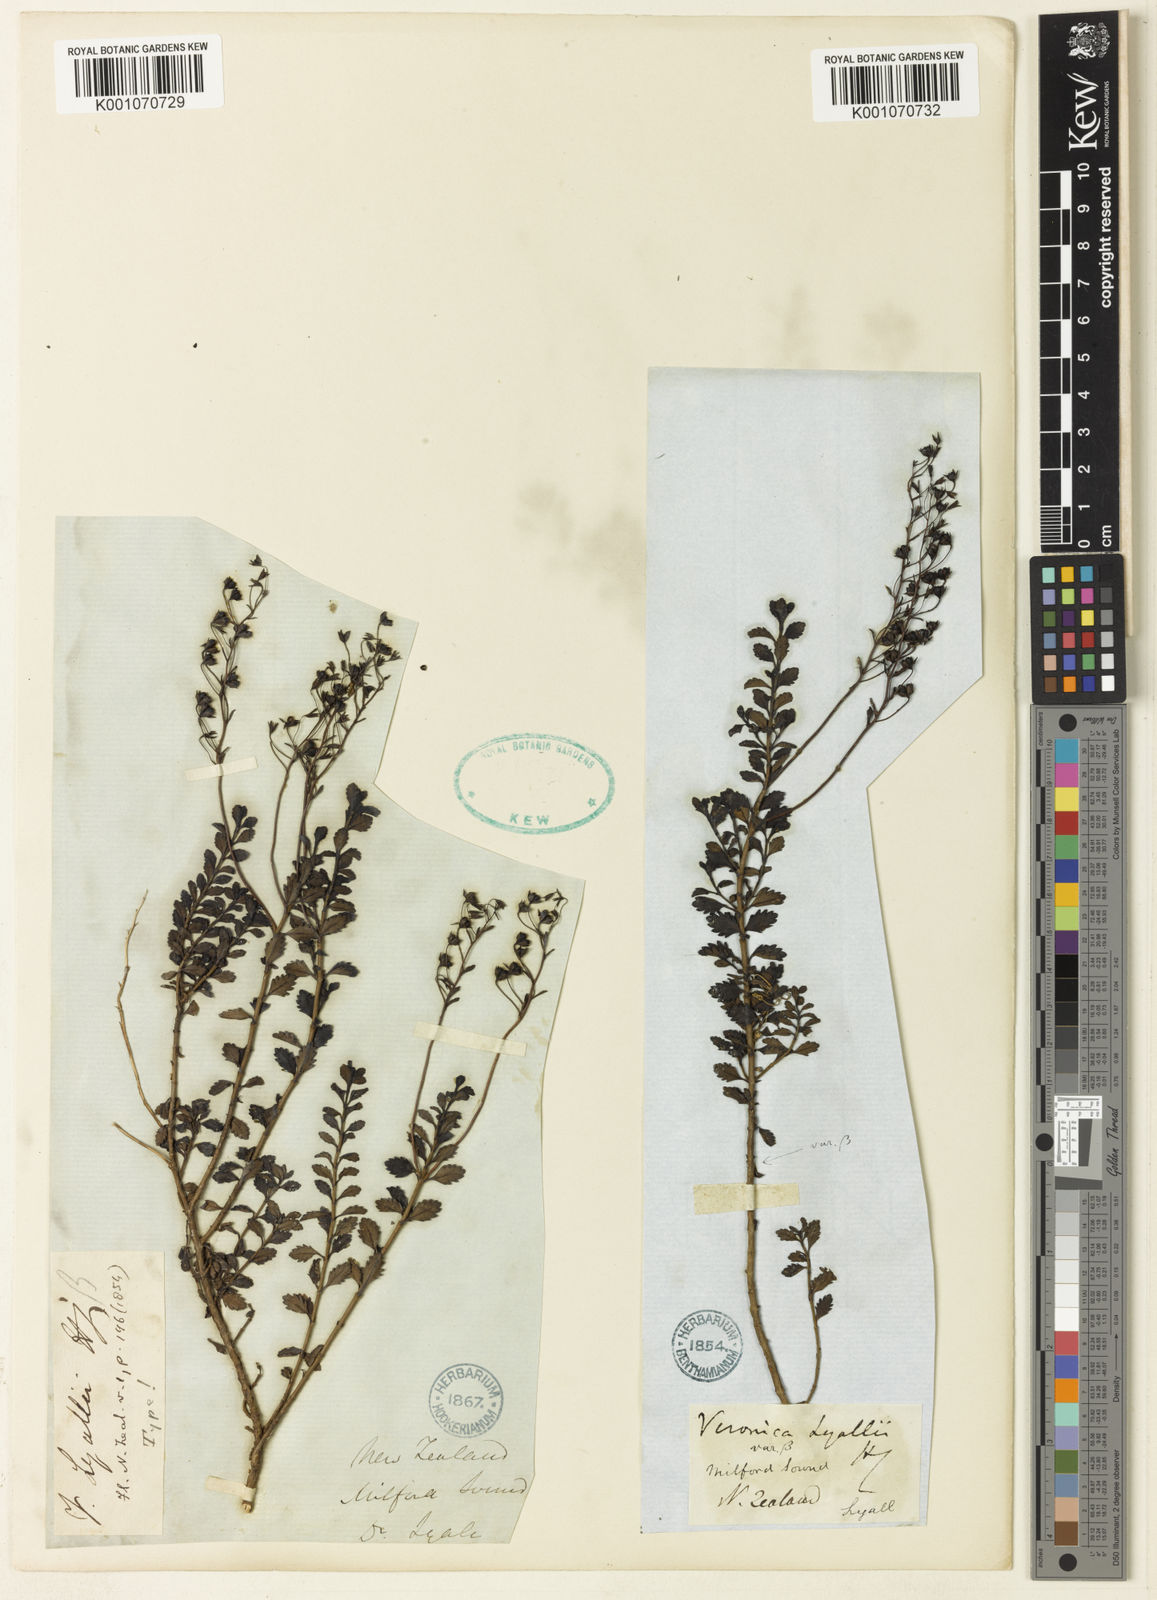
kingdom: Plantae
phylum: Tracheophyta
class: Magnoliopsida
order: Lamiales
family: Plantaginaceae
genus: Veronica
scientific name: Veronica lyallii
